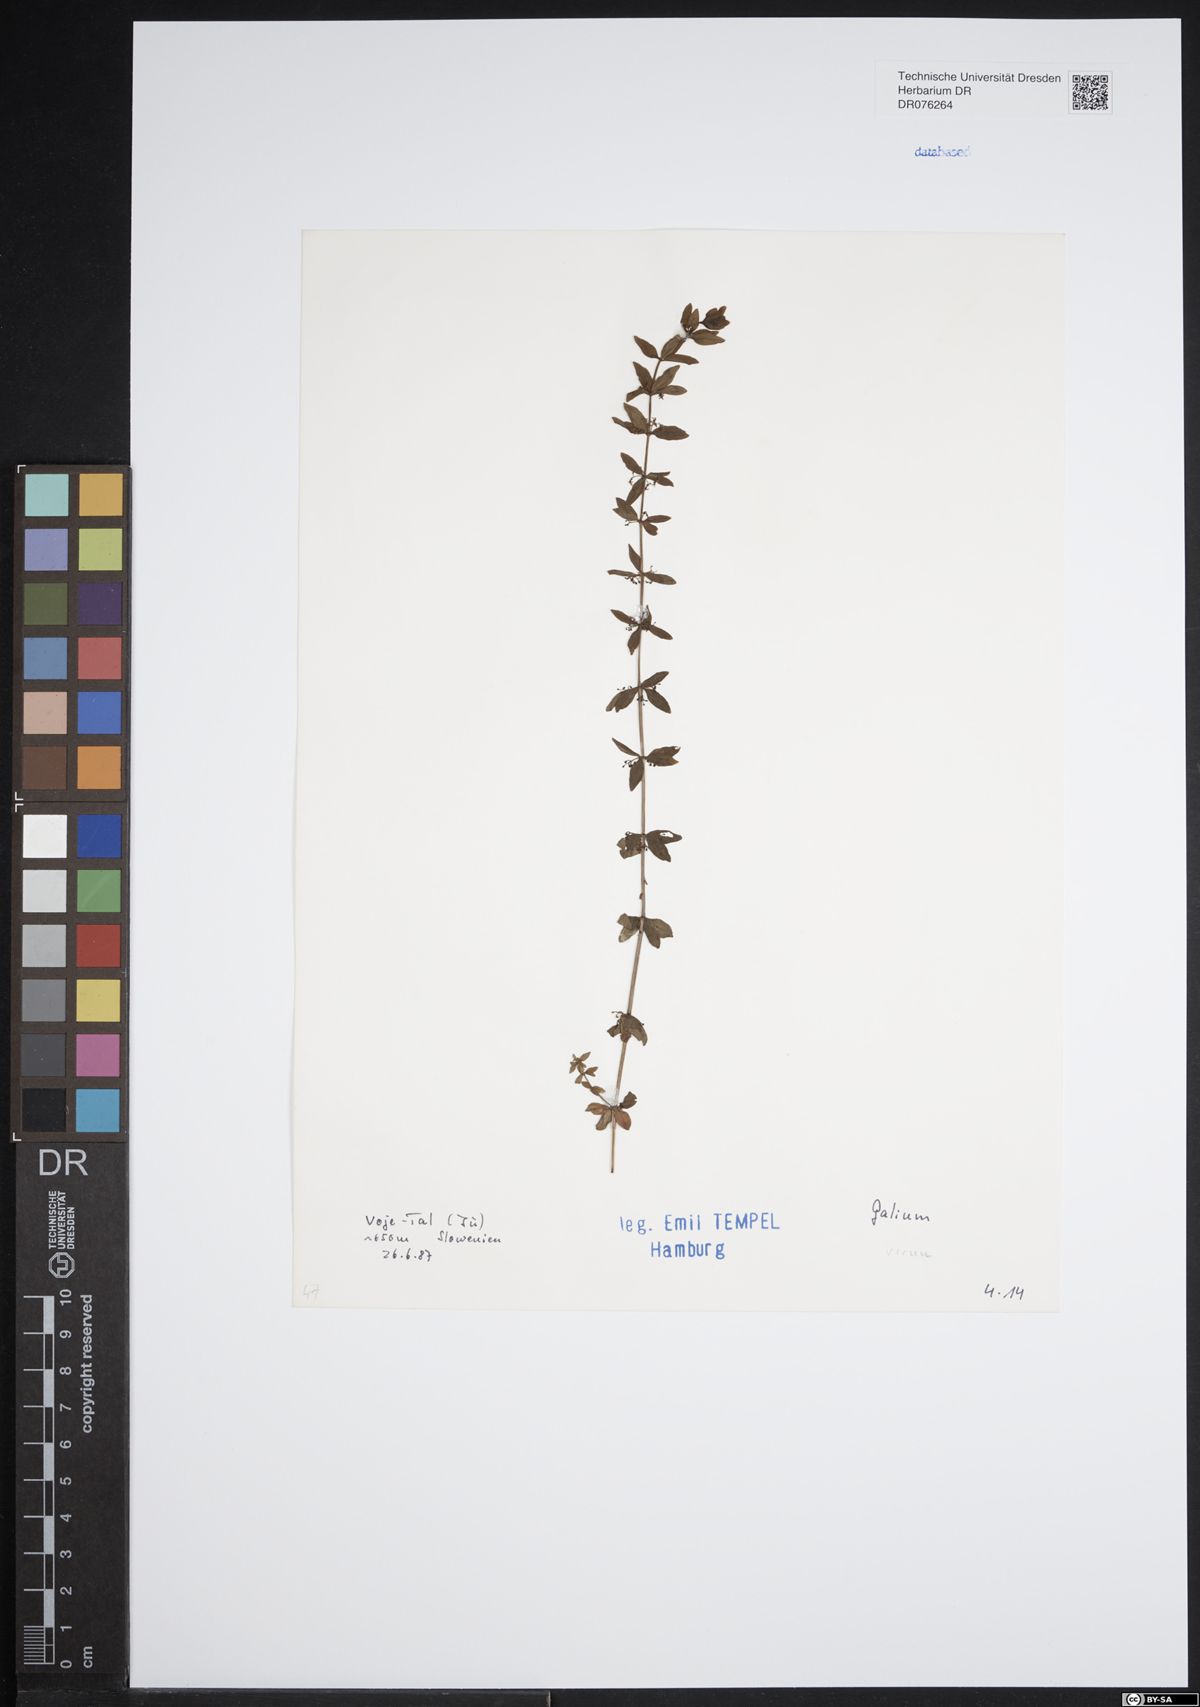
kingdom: Plantae
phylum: Tracheophyta
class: Magnoliopsida
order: Gentianales
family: Rubiaceae
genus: Galium
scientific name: Galium
